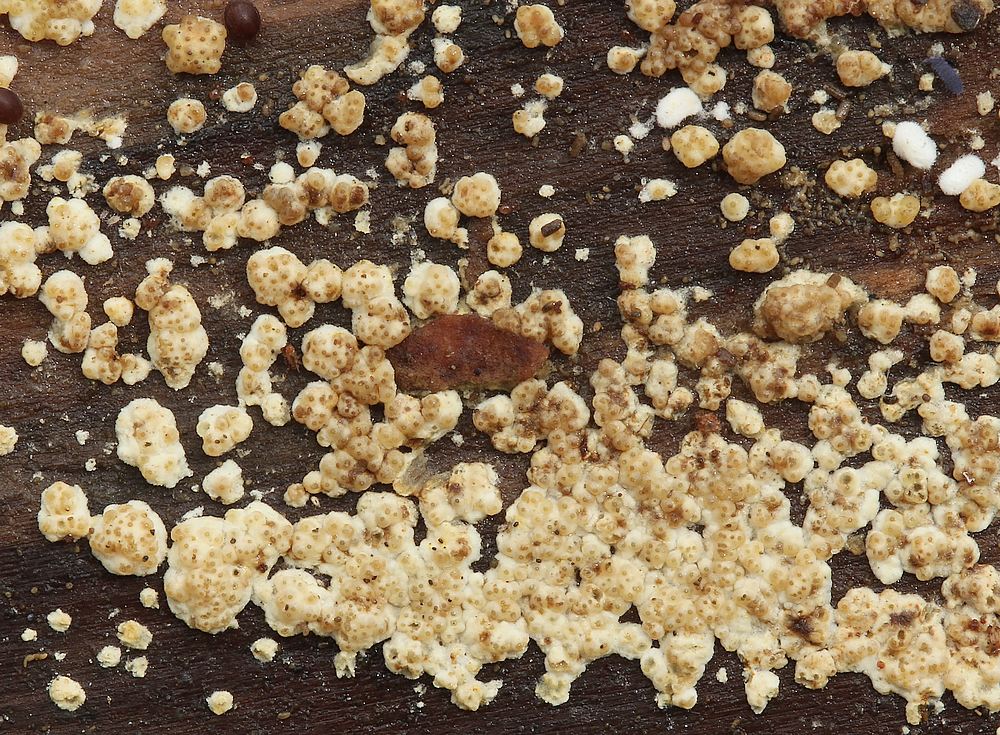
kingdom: Fungi
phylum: Ascomycota
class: Sordariomycetes
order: Hypocreales
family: Hypocreaceae
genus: Trichoderma
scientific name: Trichoderma
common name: kødkerne
